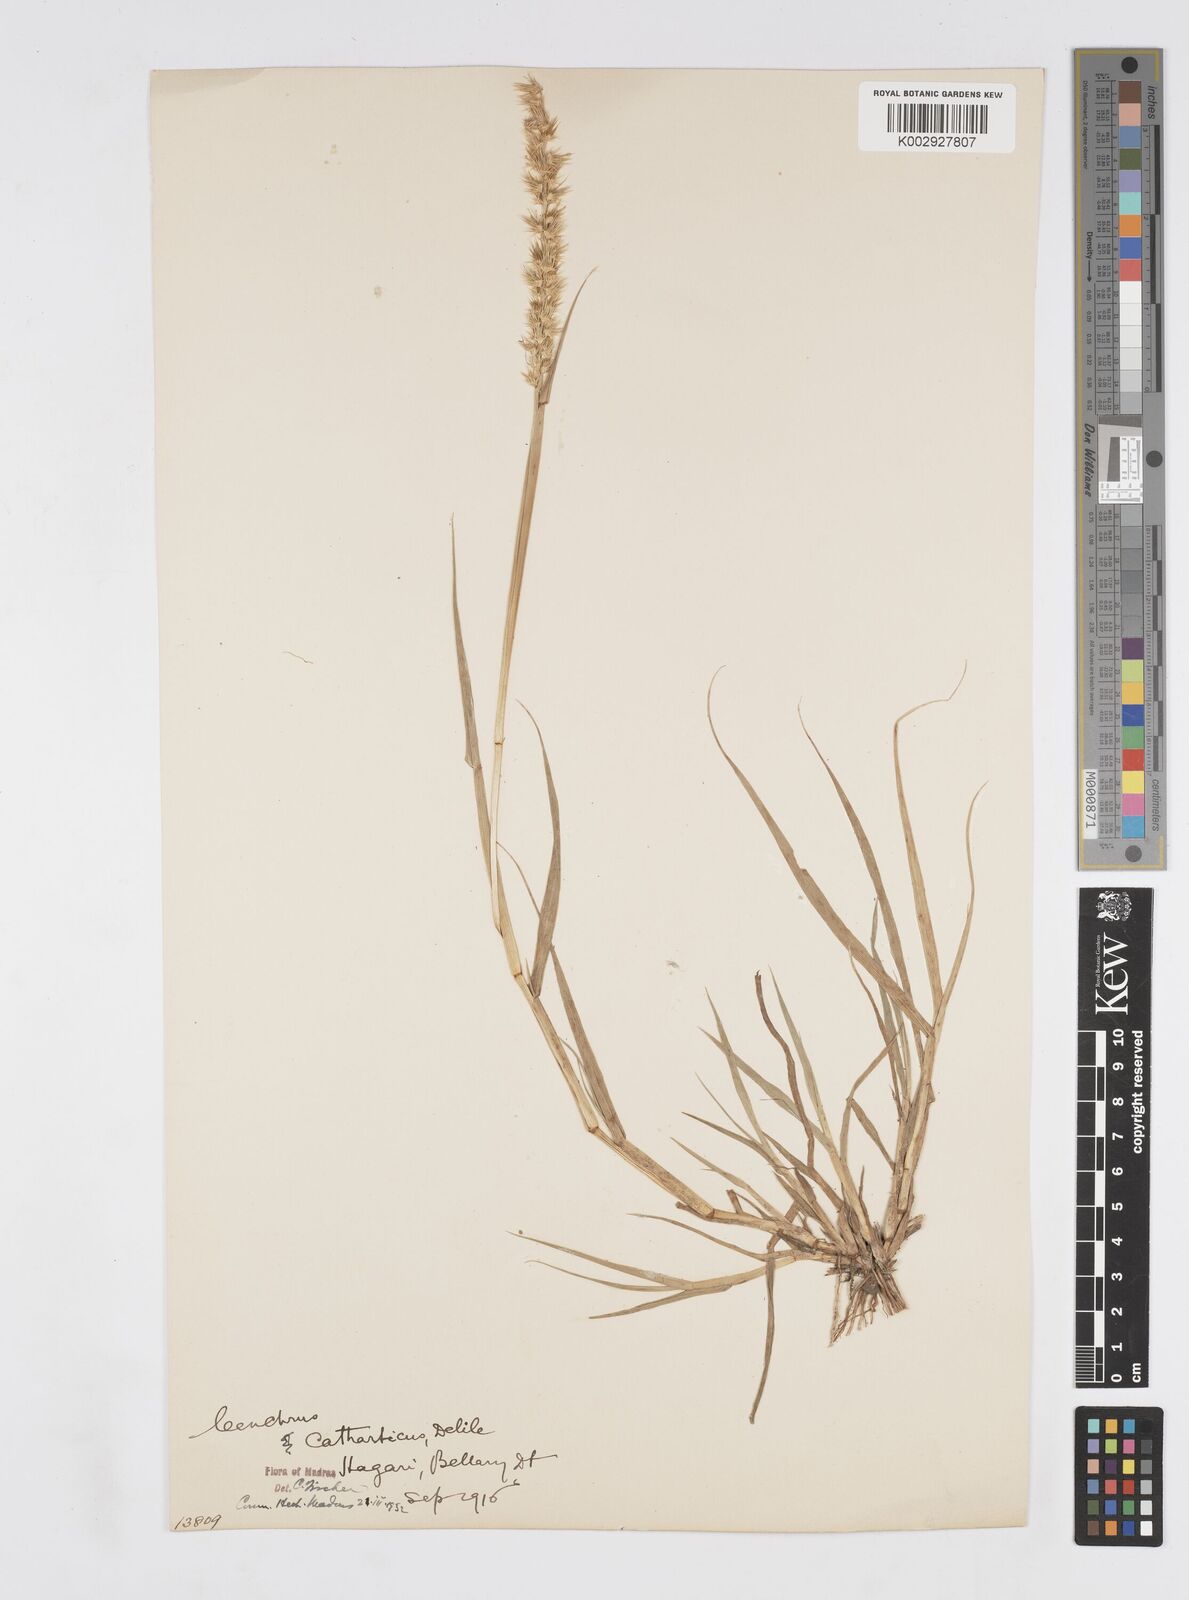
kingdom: Plantae
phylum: Tracheophyta
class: Liliopsida
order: Poales
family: Poaceae
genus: Cenchrus
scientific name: Cenchrus biflorus
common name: Indian sandbur
